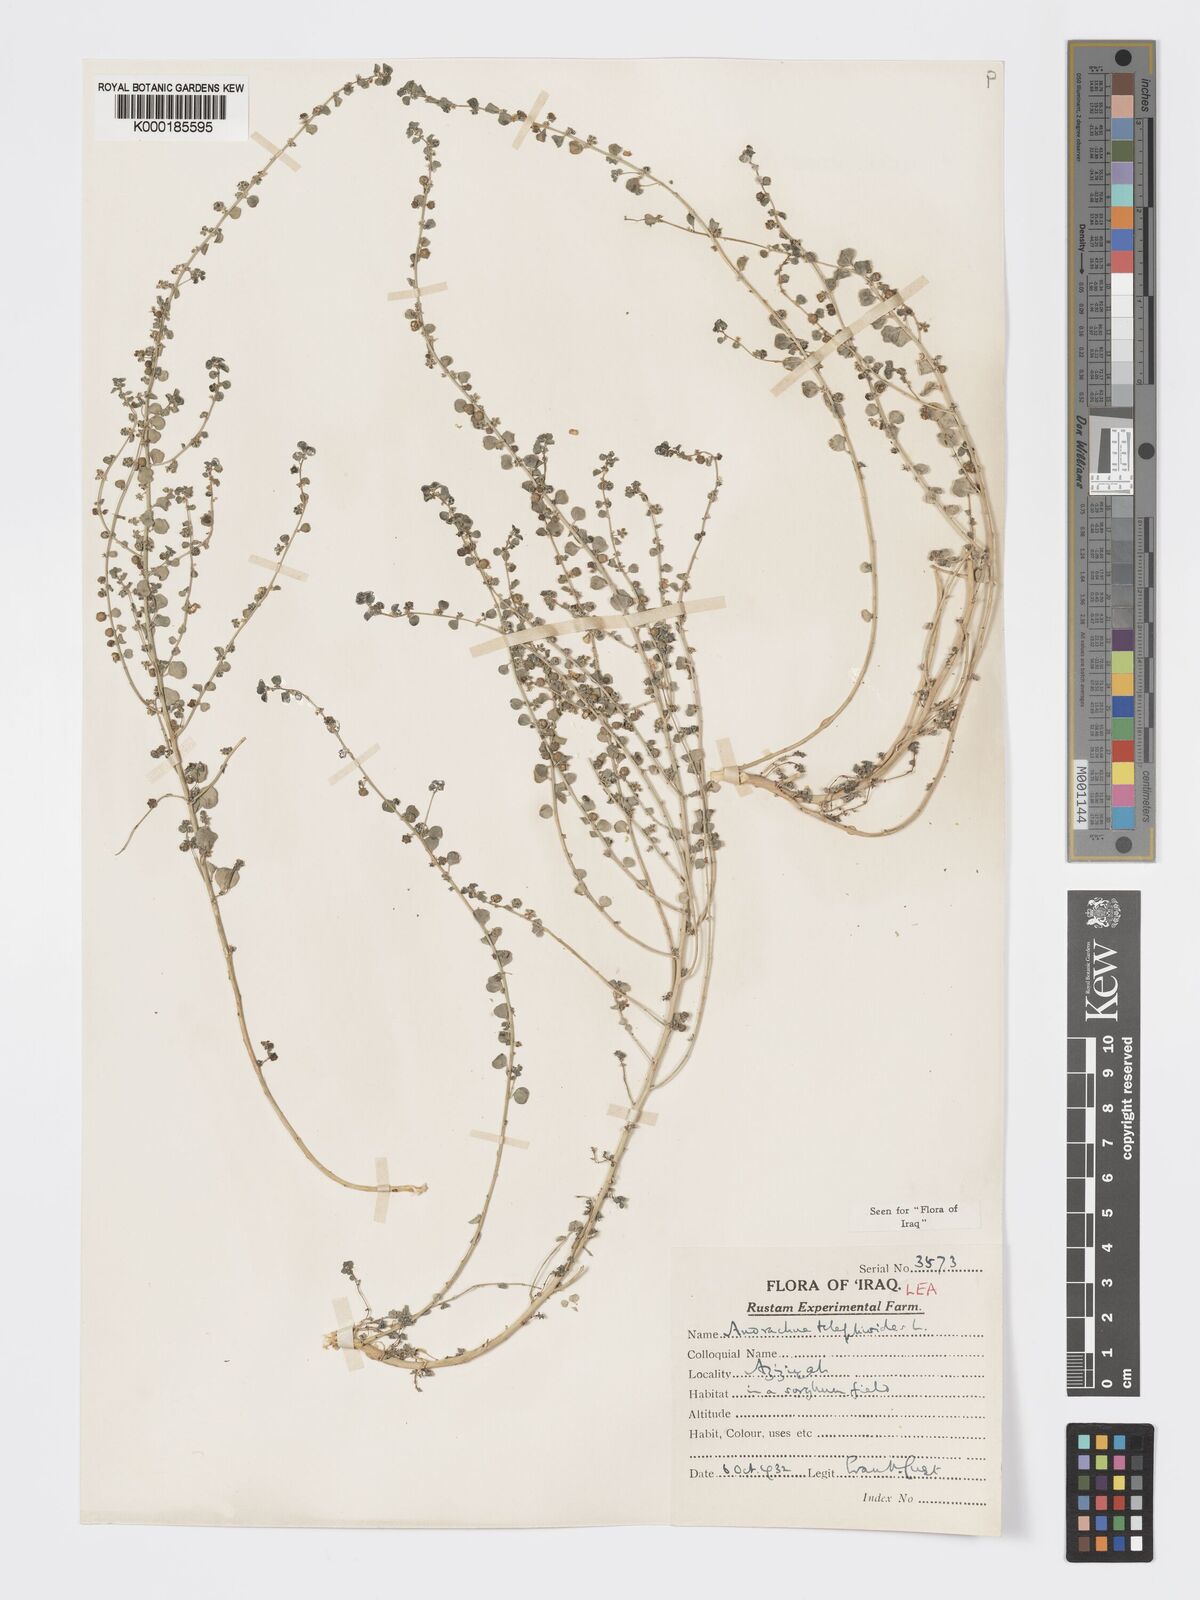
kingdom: Plantae
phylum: Tracheophyta
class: Magnoliopsida
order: Malpighiales
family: Phyllanthaceae
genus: Andrachne
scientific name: Andrachne telephioides
